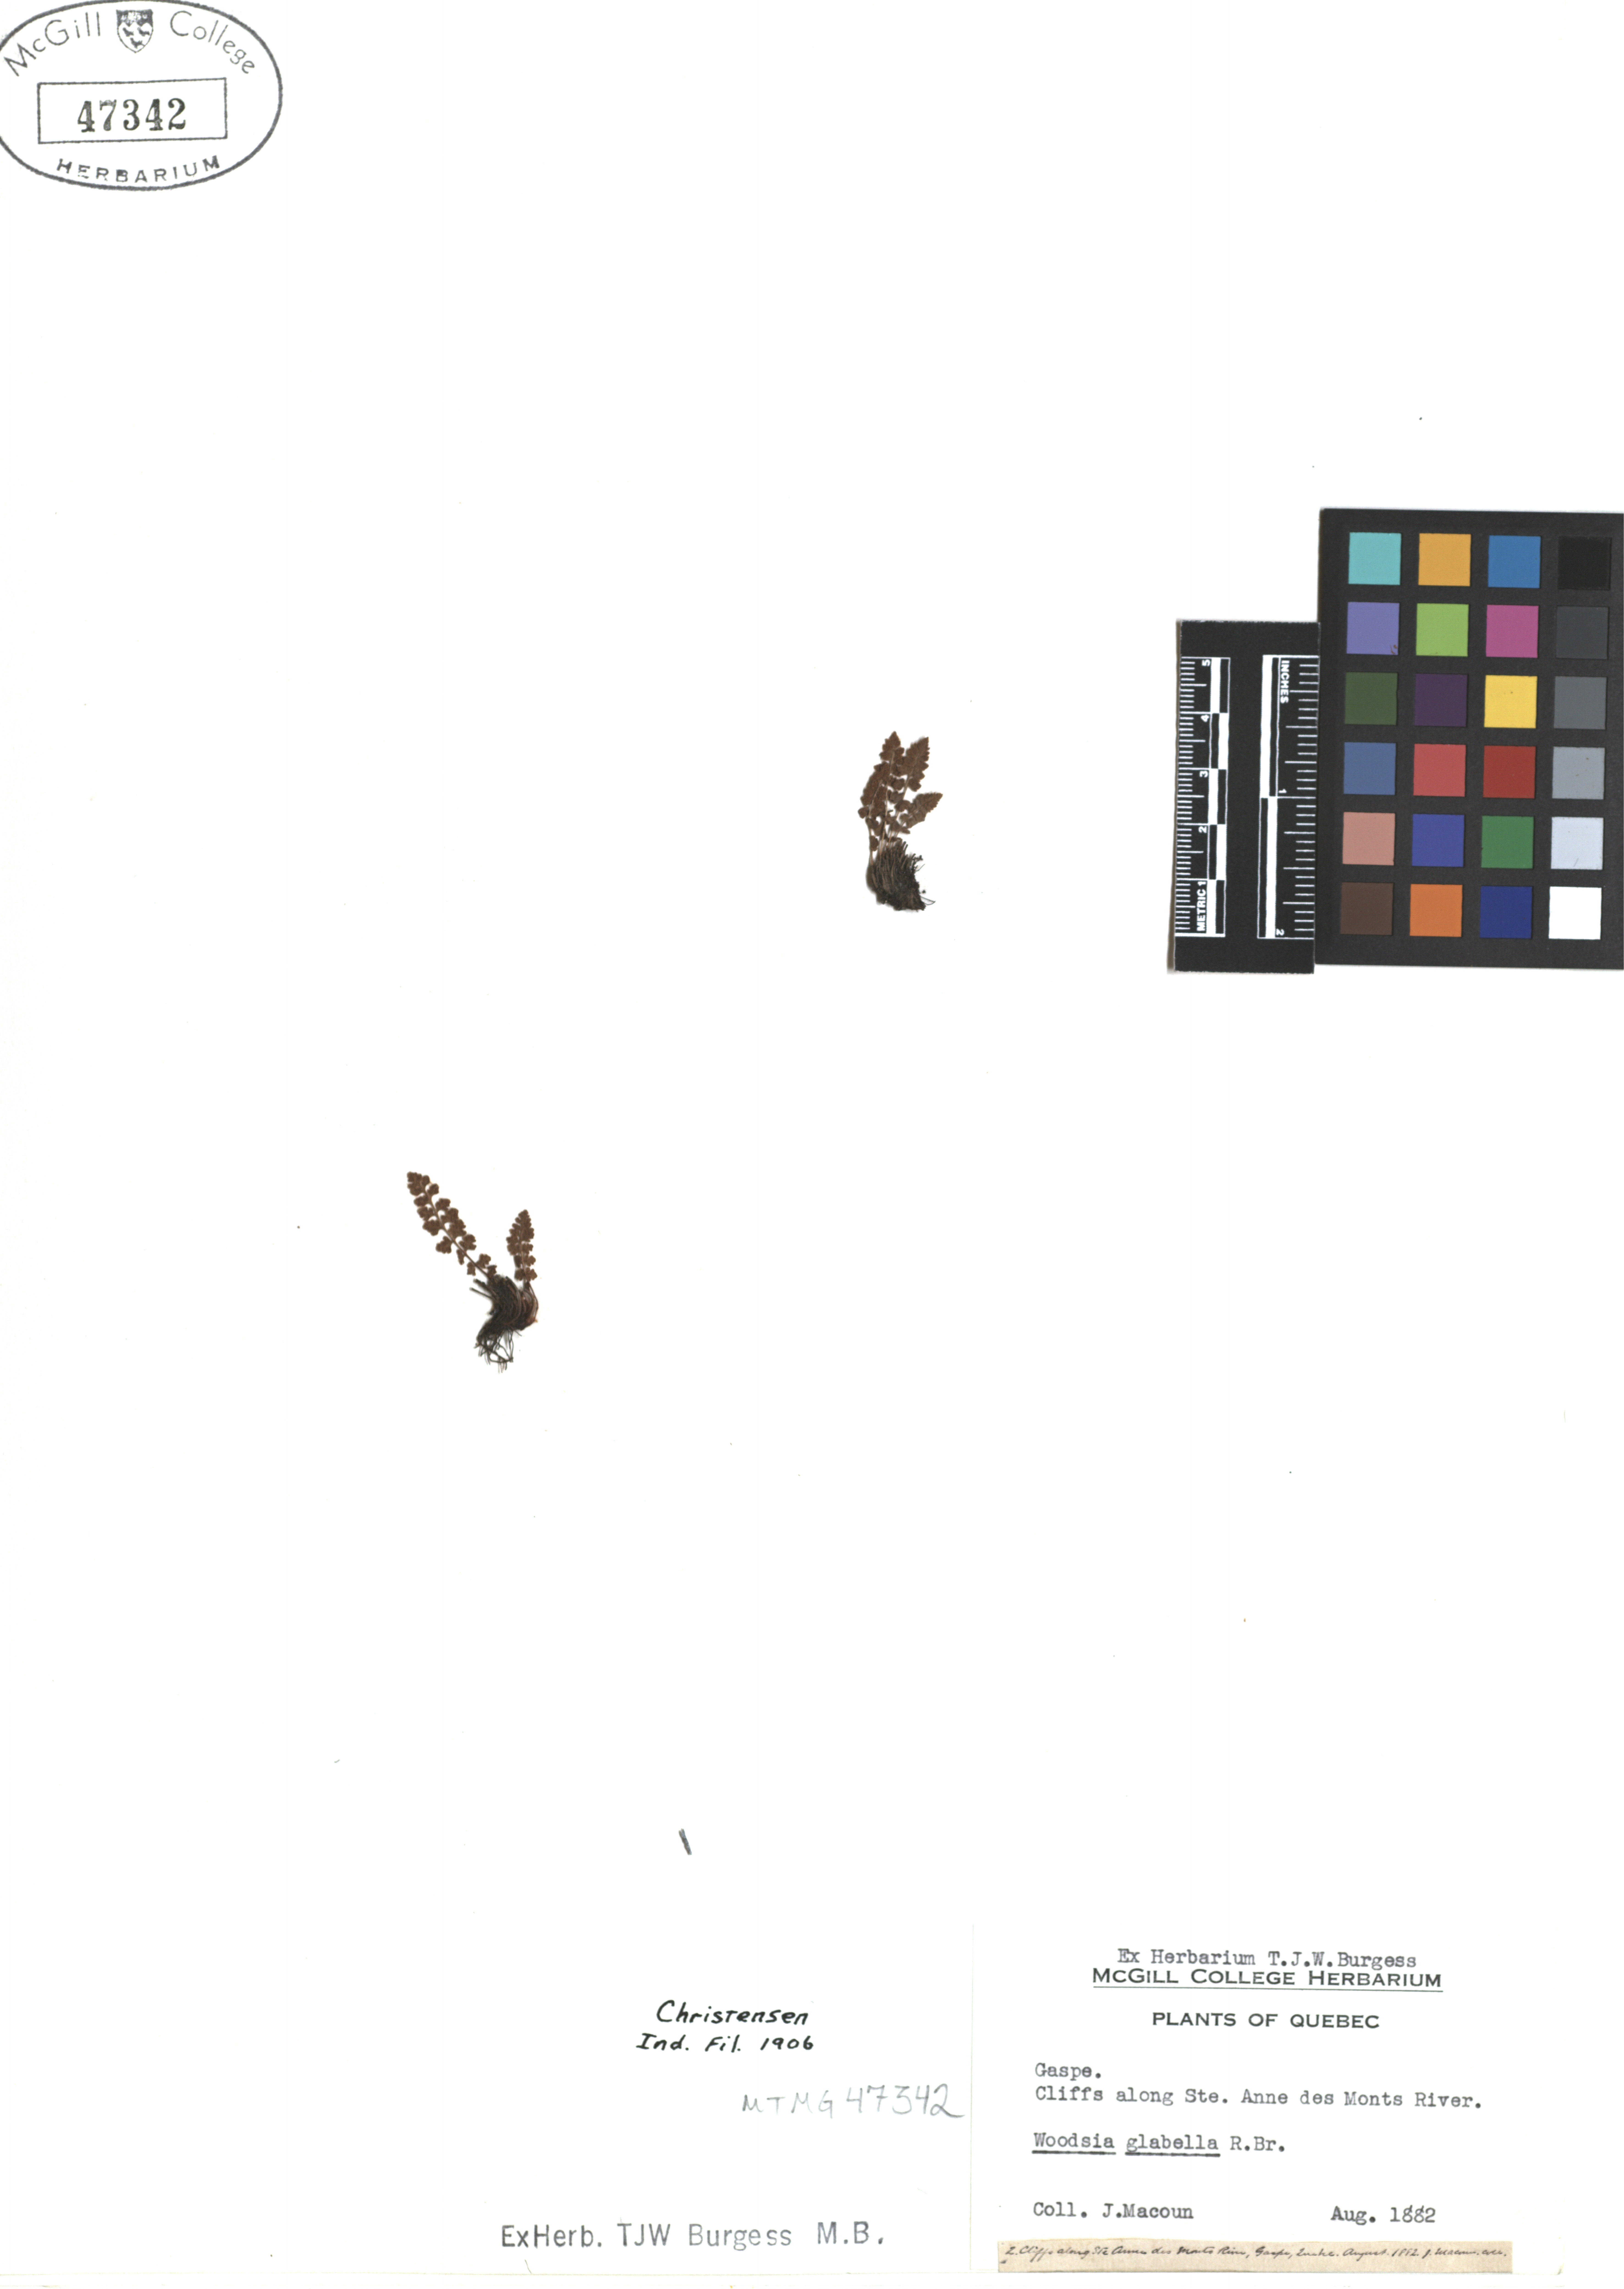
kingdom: Plantae
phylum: Tracheophyta
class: Polypodiopsida
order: Polypodiales
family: Woodsiaceae
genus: Woodsia
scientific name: Woodsia glabella
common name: Smooth woodsia
